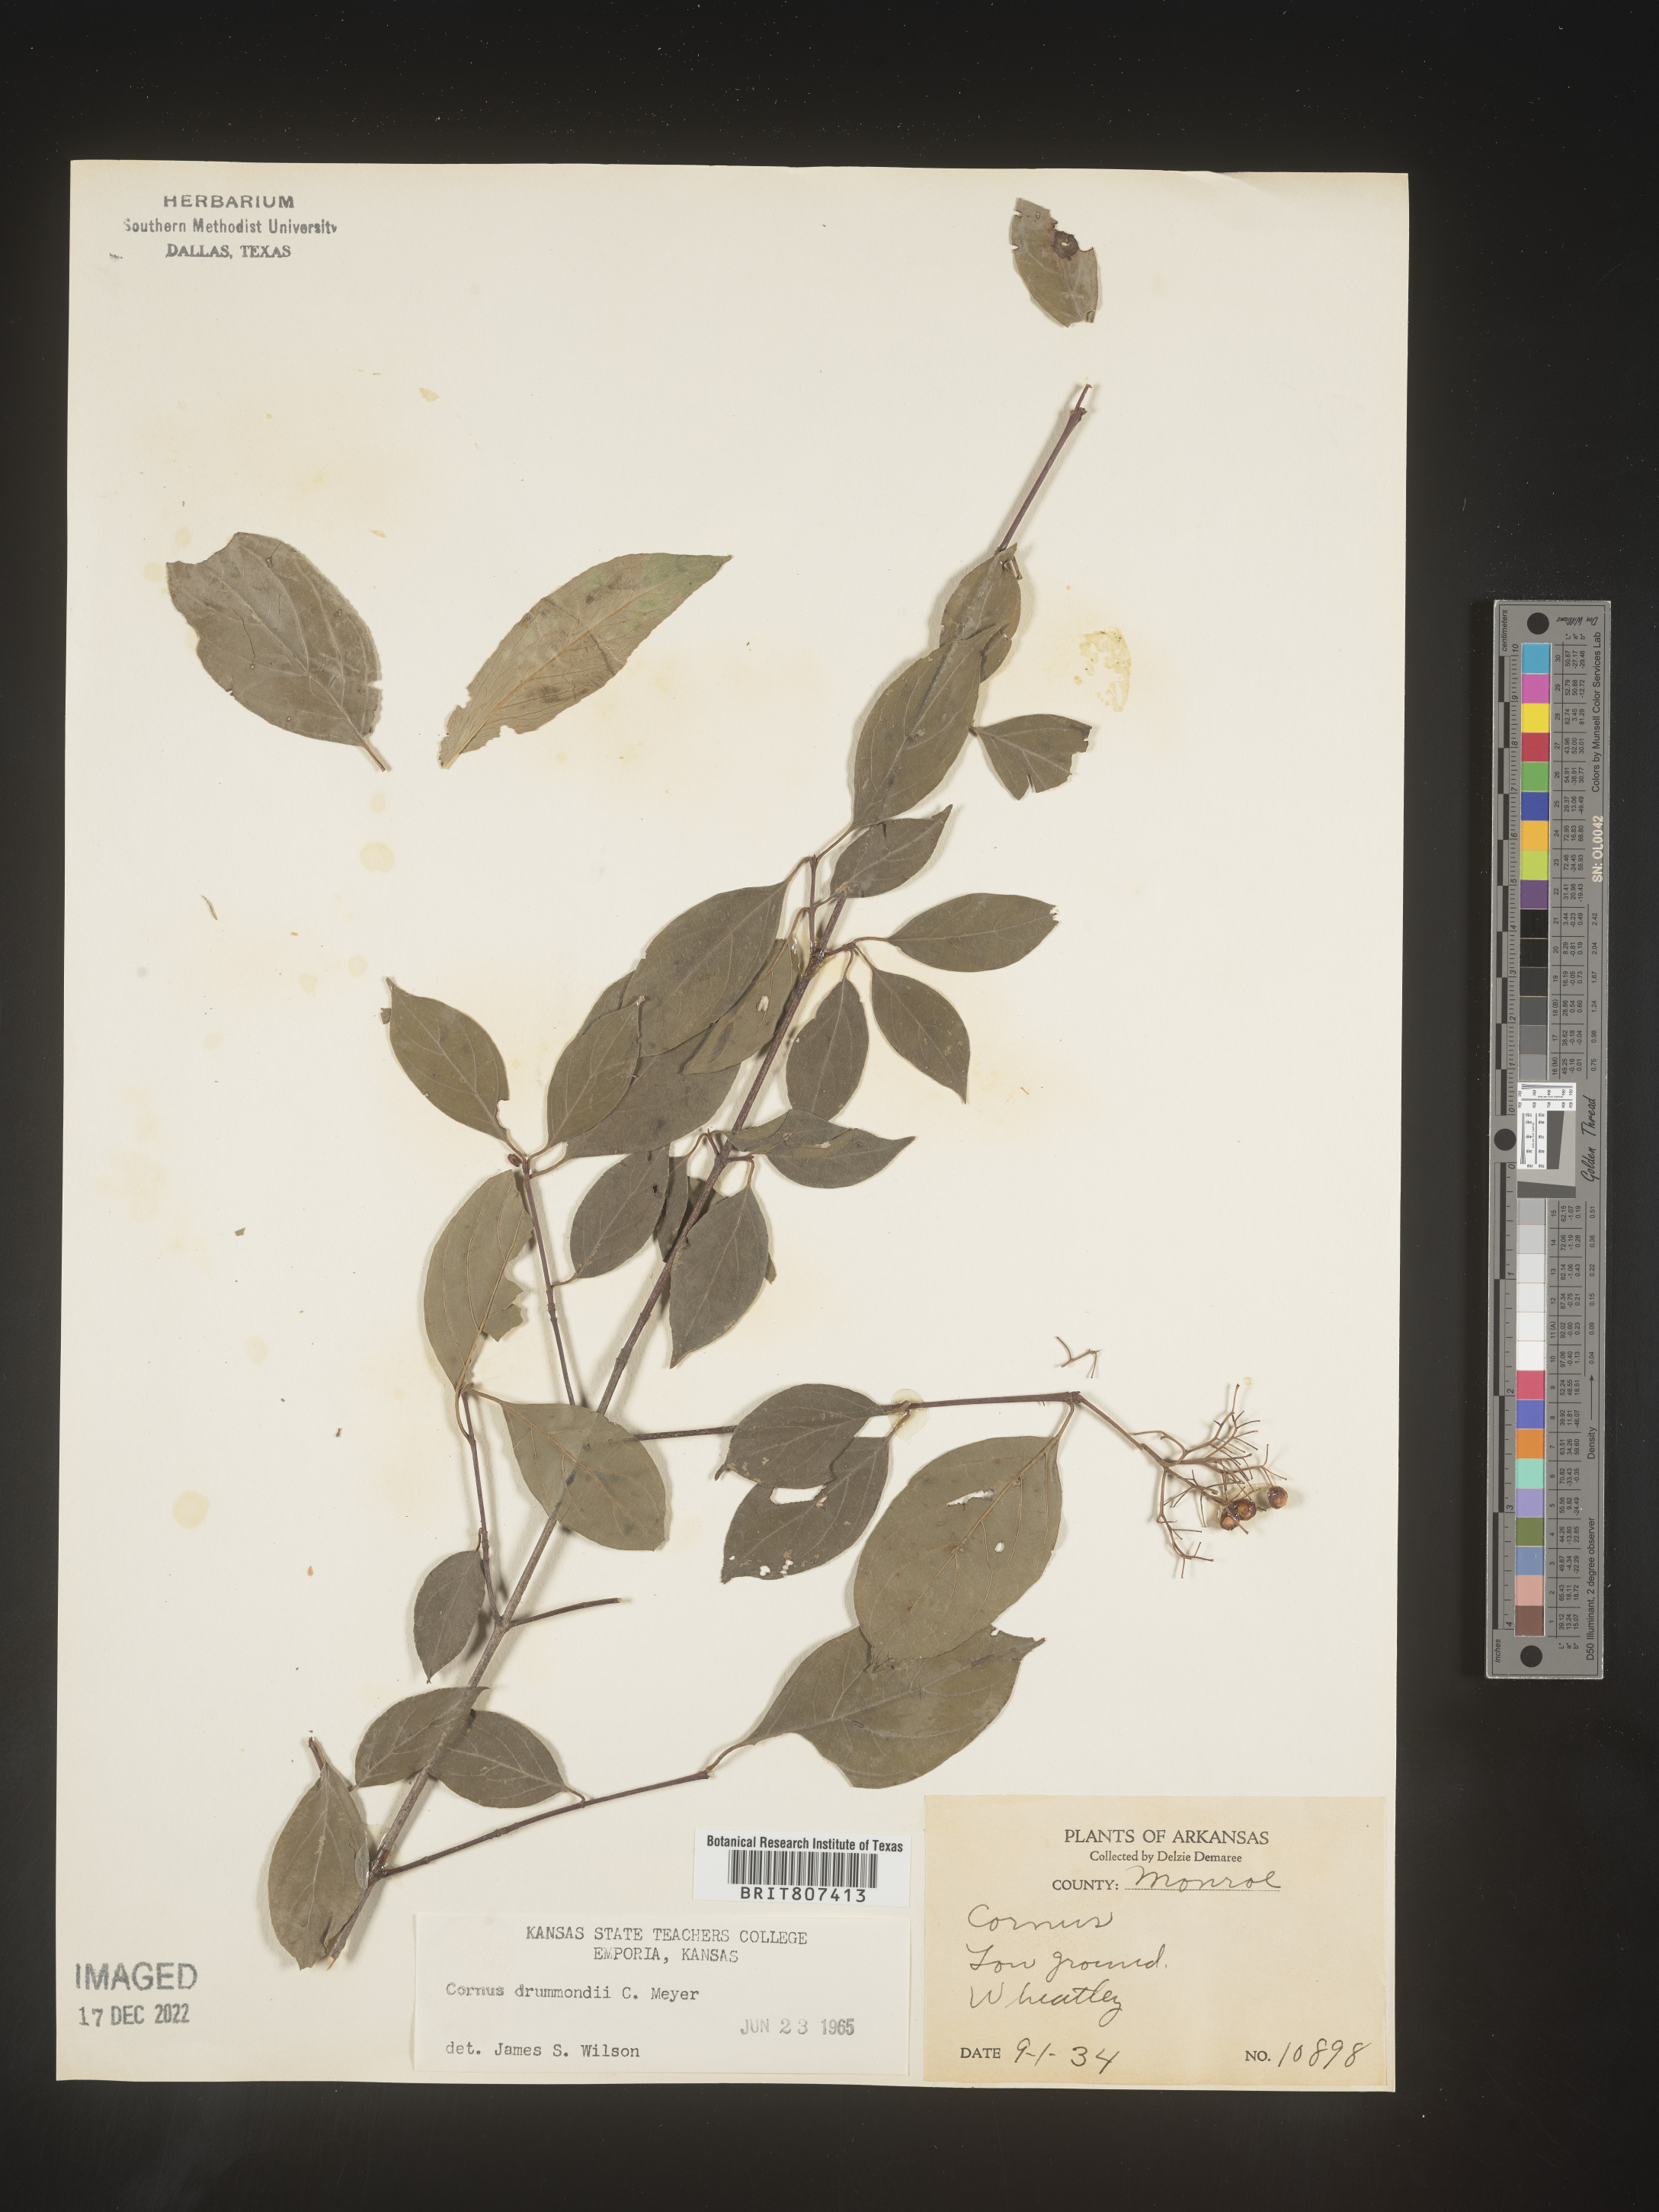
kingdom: Plantae
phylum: Tracheophyta
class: Magnoliopsida
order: Cornales
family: Cornaceae
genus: Cornus
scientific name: Cornus drummondii
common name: Rough-leaf dogwood
